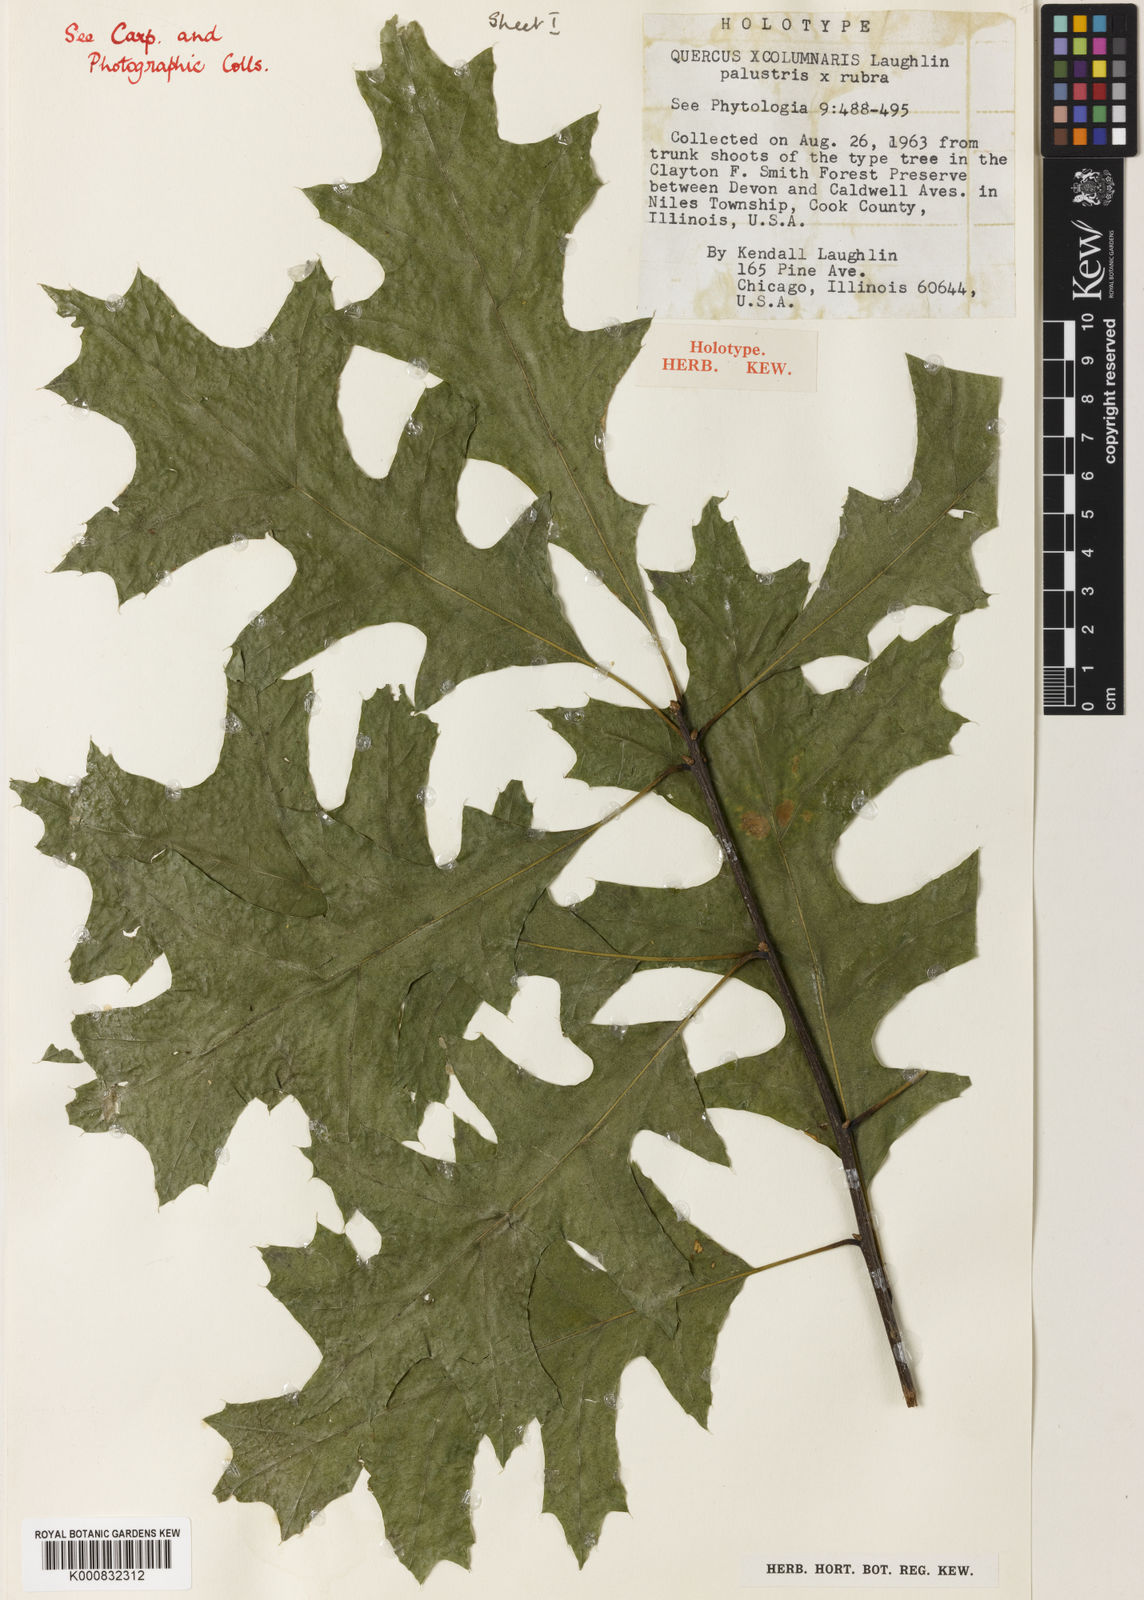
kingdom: Plantae
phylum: Tracheophyta
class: Magnoliopsida
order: Fagales
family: Fagaceae
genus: Quercus
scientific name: Quercus
